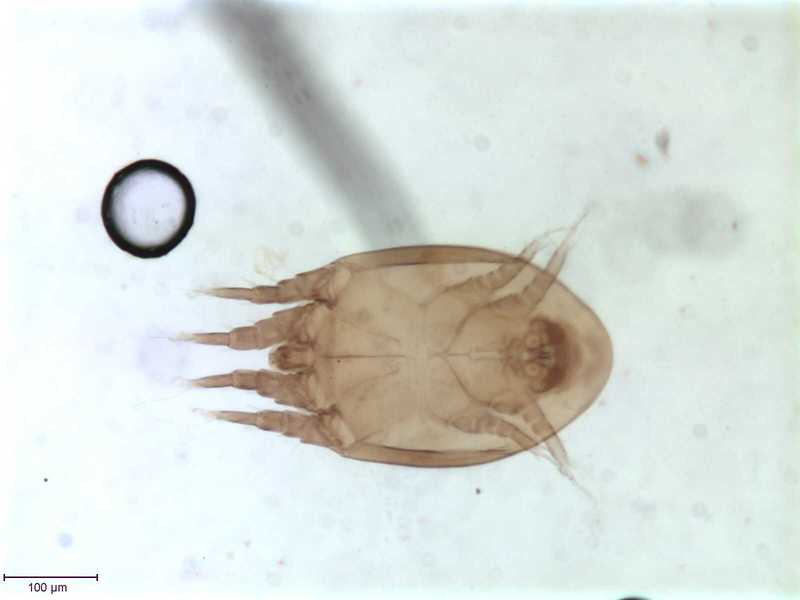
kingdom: Animalia
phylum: Arthropoda
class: Arachnida
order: Sarcoptiformes
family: Algophagidae
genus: Hericia
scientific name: Hericia fermentationis
